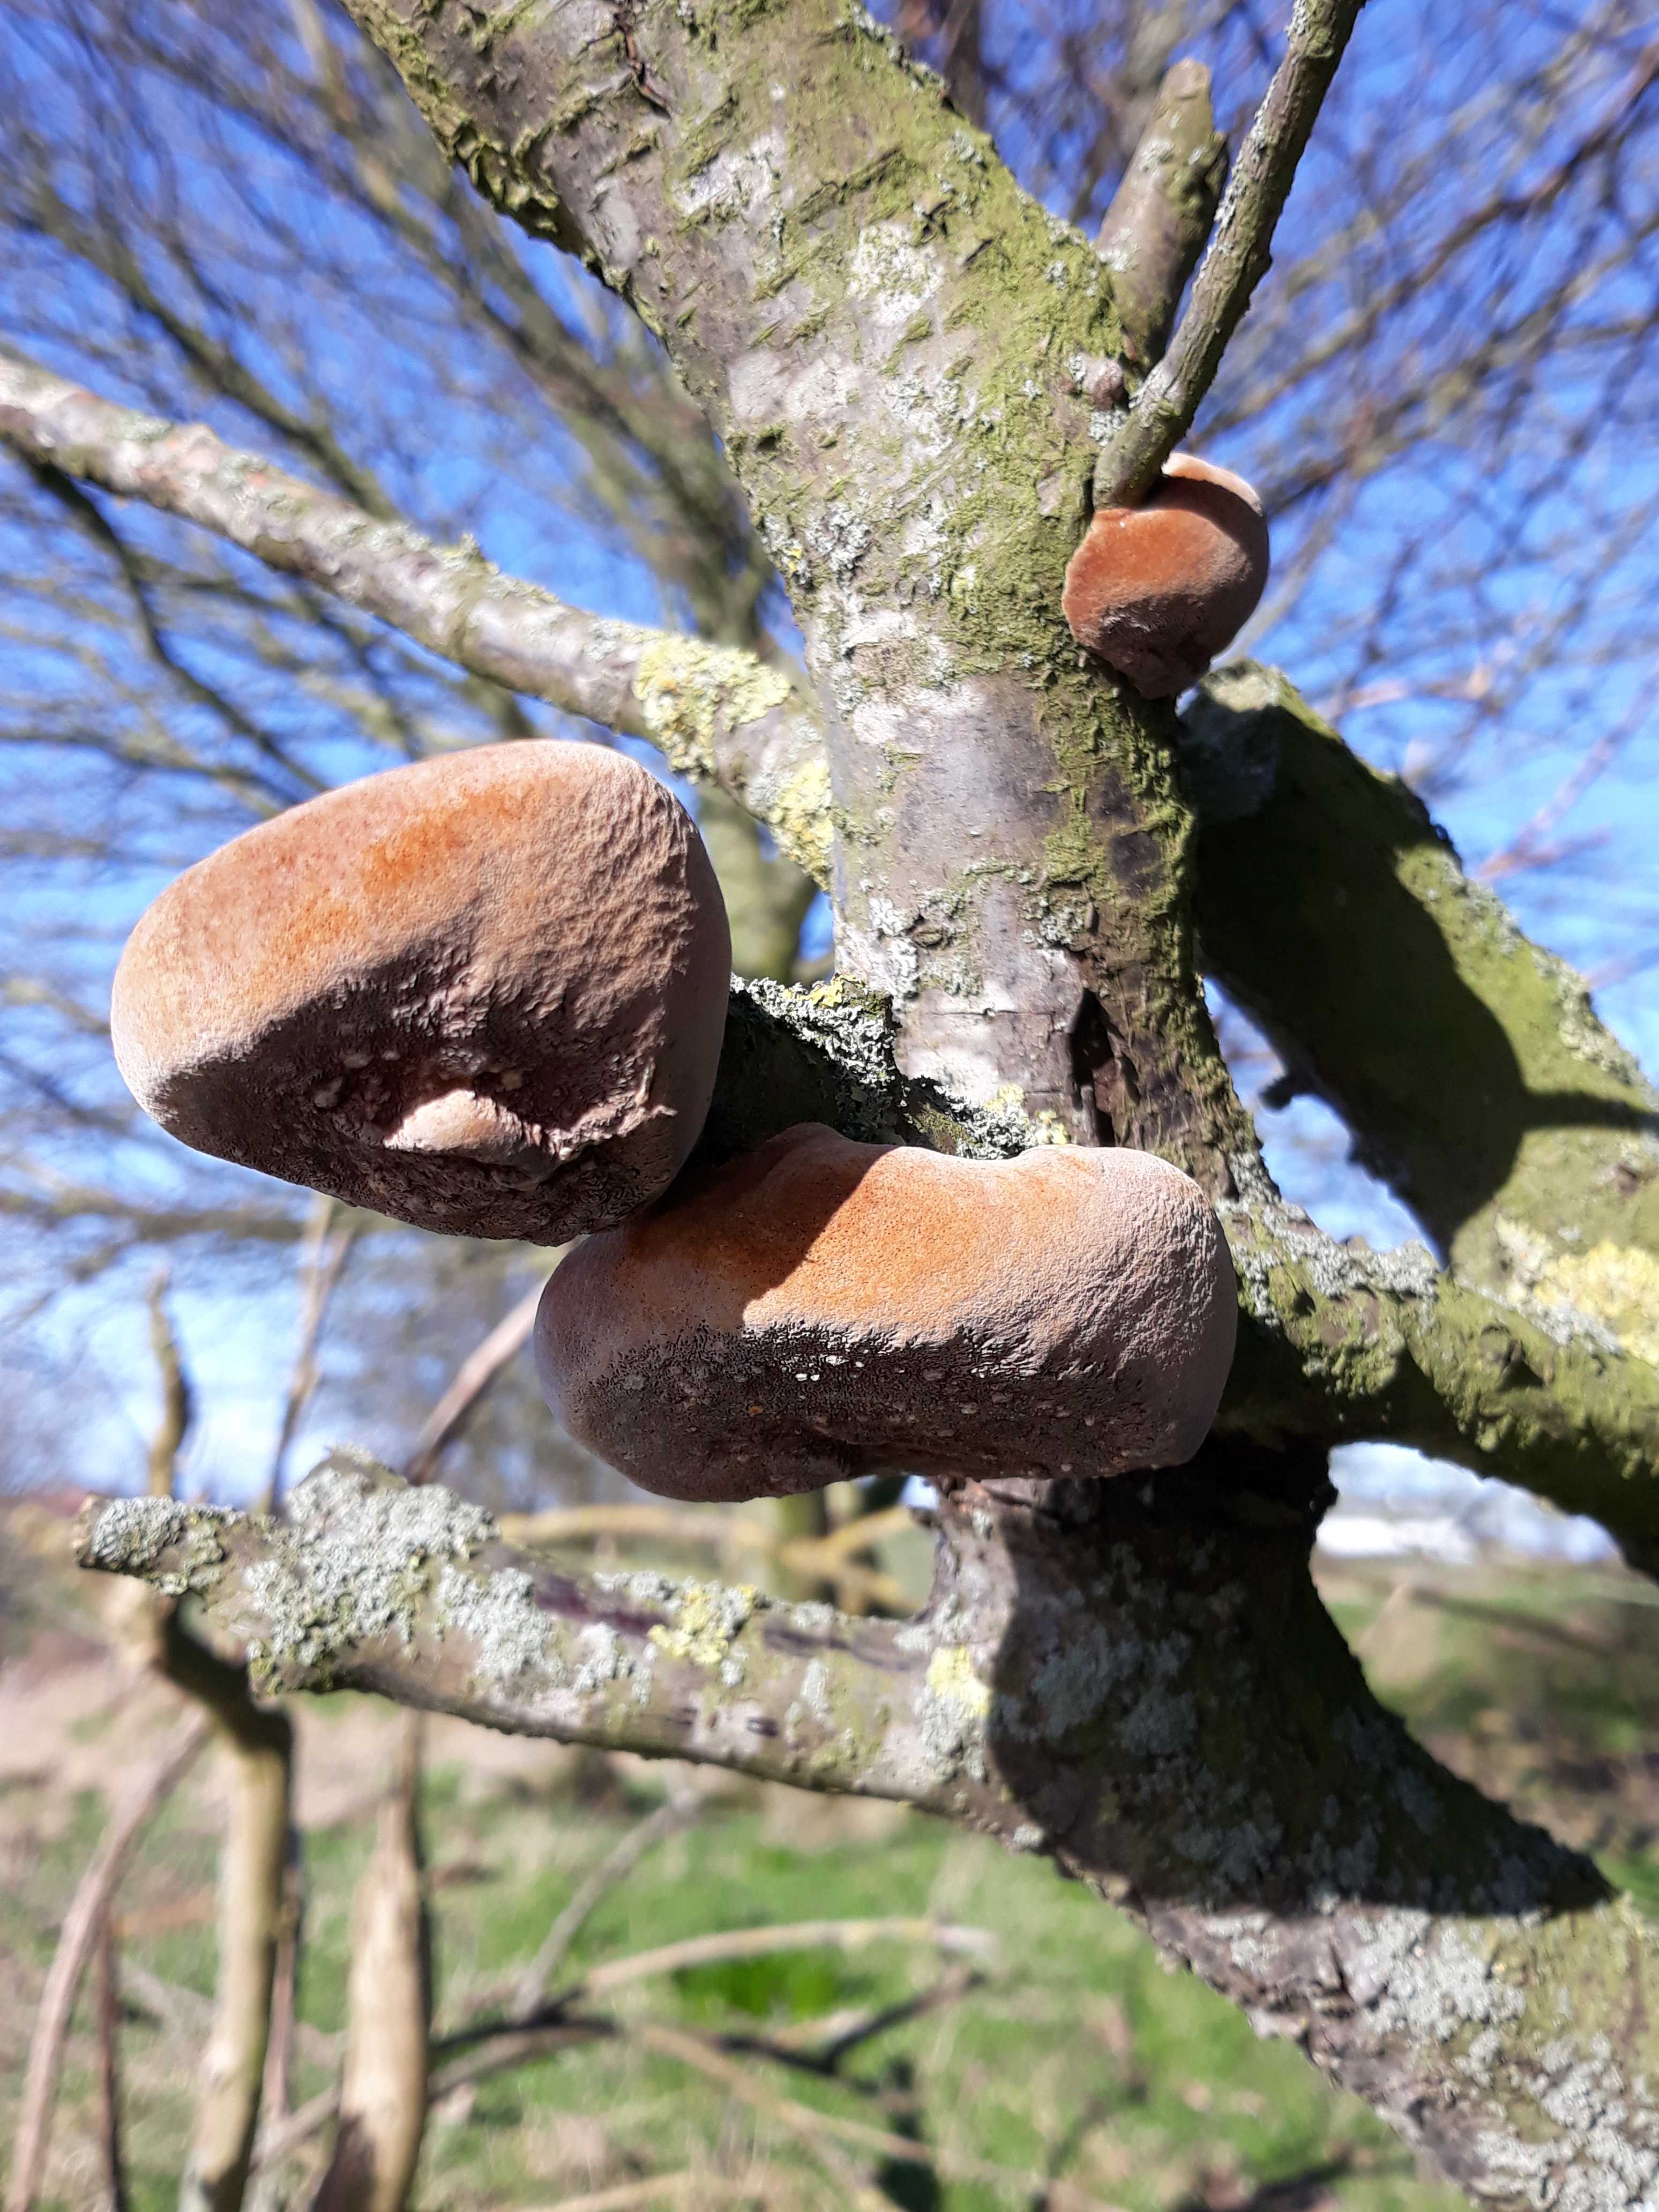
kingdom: Fungi
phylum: Basidiomycota
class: Agaricomycetes
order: Hymenochaetales
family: Hymenochaetaceae
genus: Phellinus
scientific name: Phellinus pomaceus
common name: blomme-ildporesvamp
